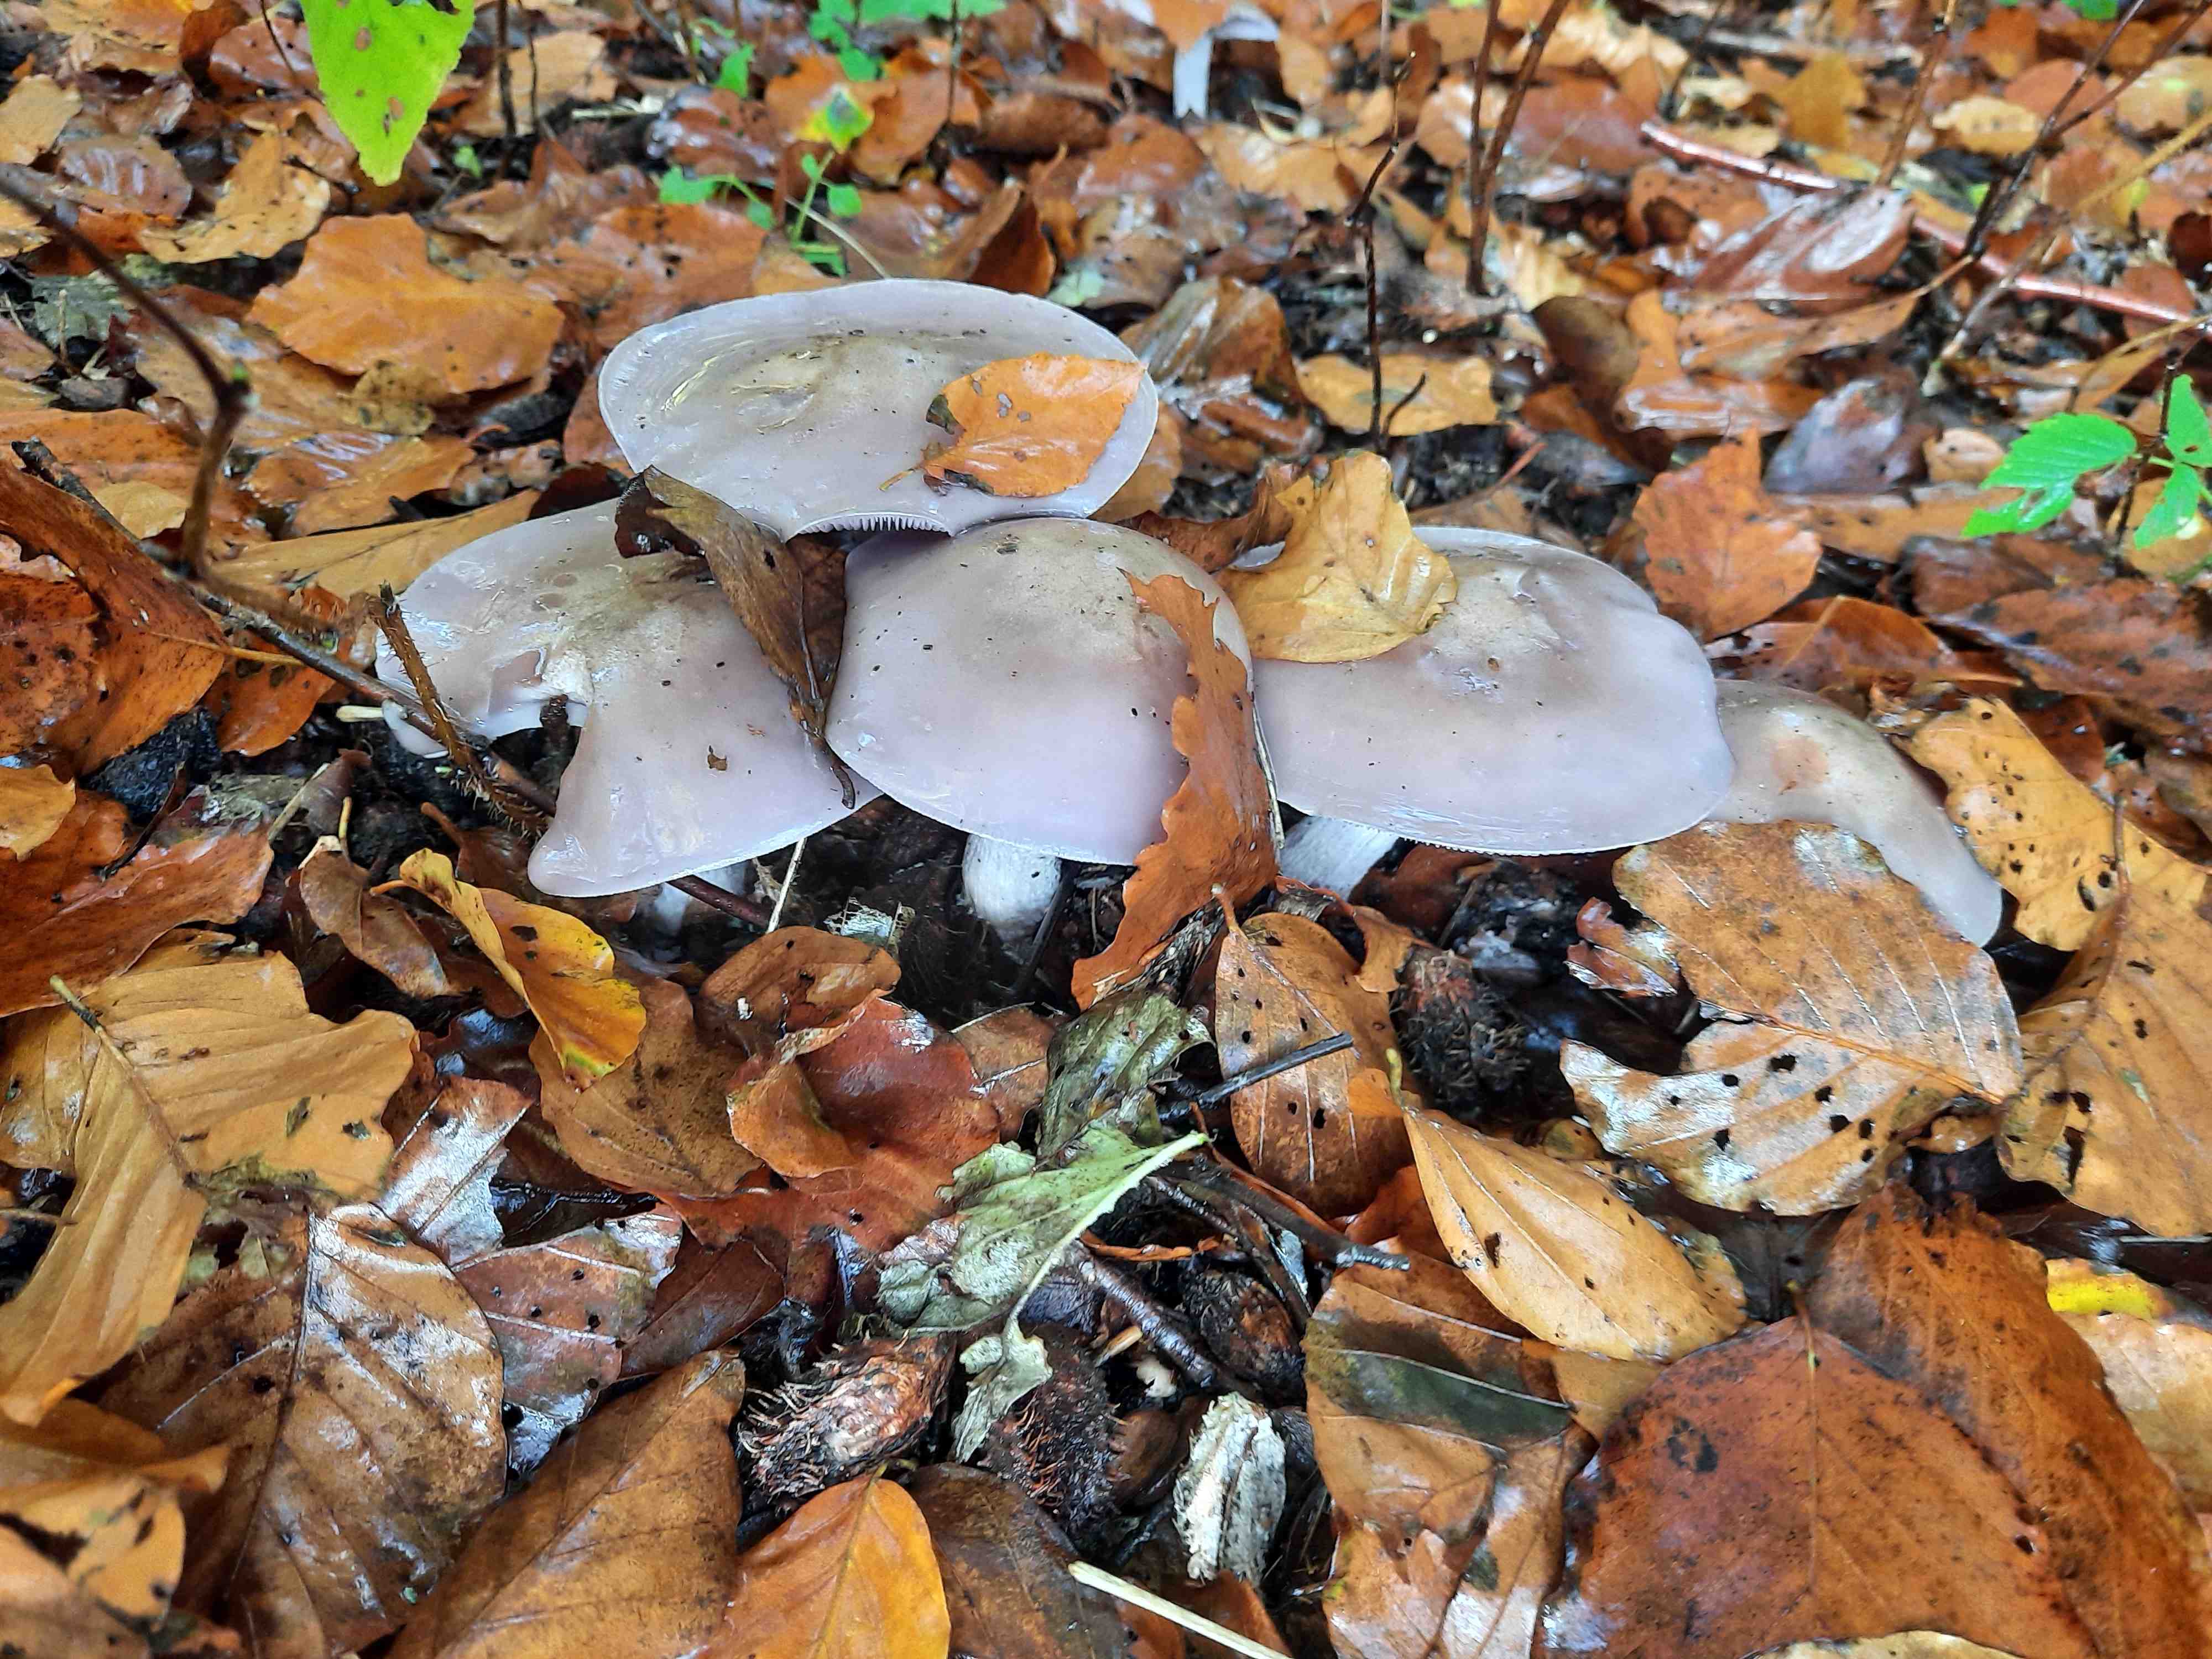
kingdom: Fungi
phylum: Basidiomycota
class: Agaricomycetes
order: Agaricales
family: Tricholomataceae
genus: Lepista
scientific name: Lepista nuda
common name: violet hekseringshat
